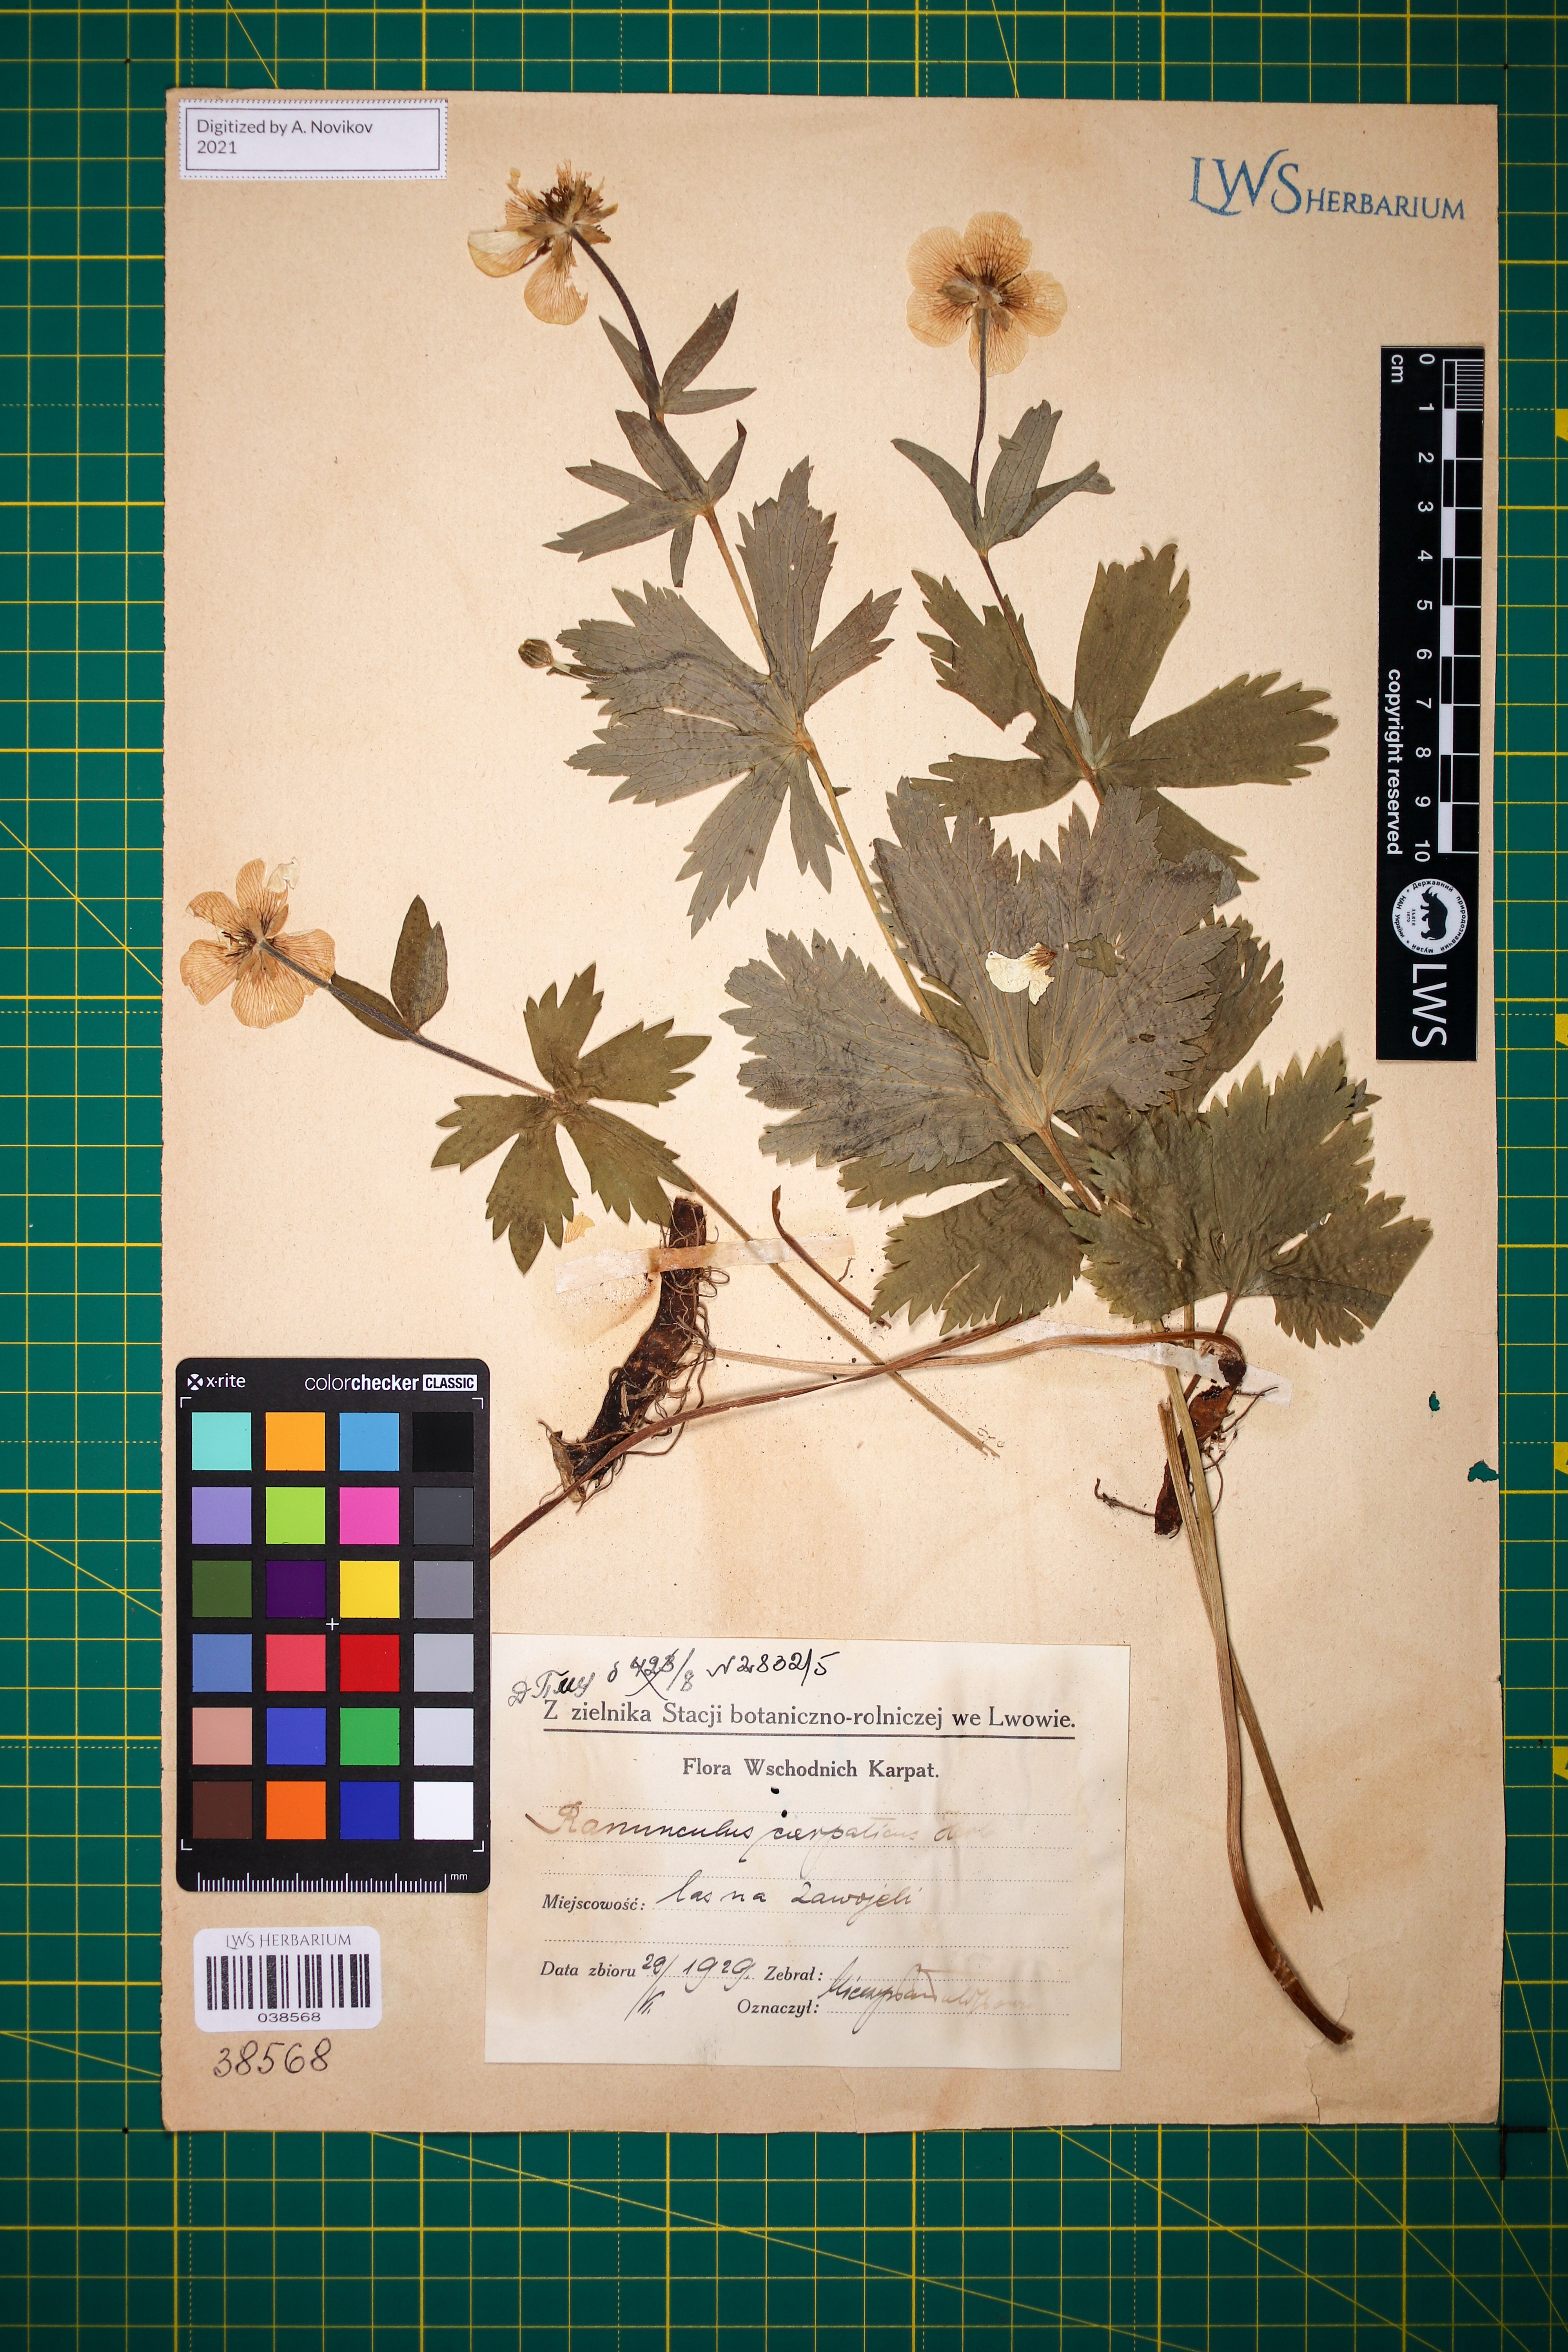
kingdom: Plantae
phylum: Tracheophyta
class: Magnoliopsida
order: Ranunculales
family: Ranunculaceae
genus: Ranunculus
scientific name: Ranunculus carpaticus
